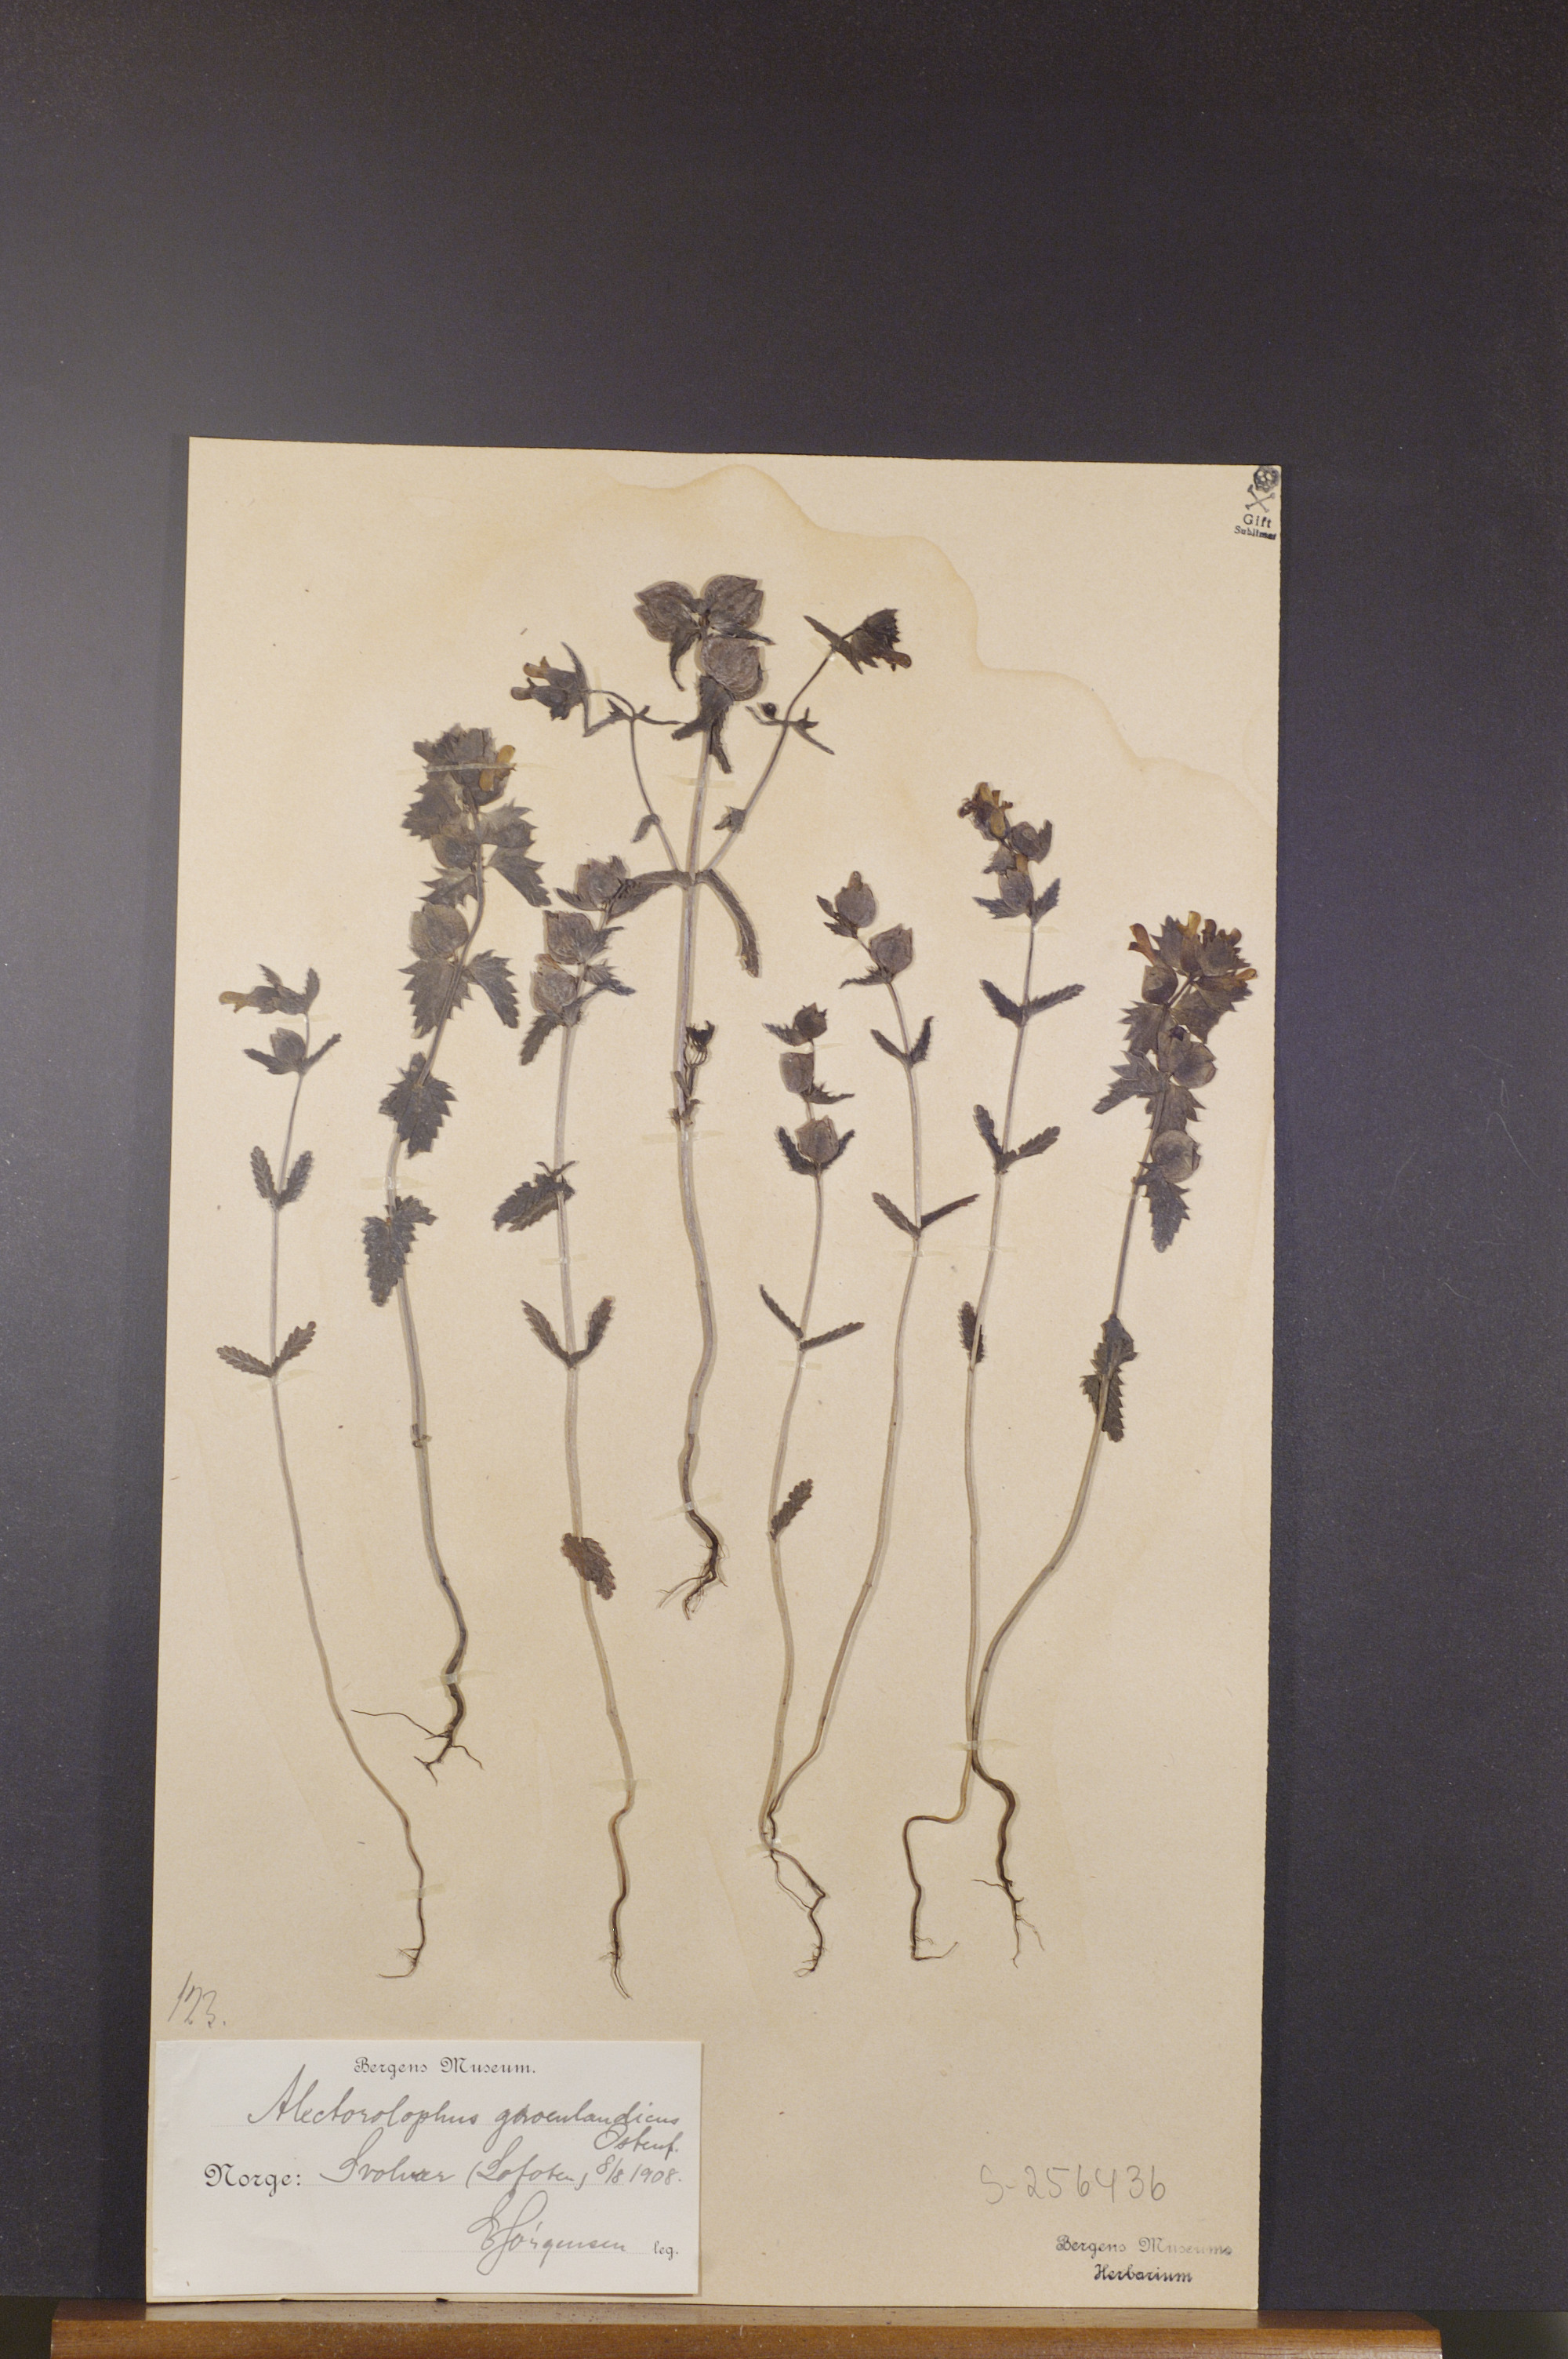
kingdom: Plantae
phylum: Tracheophyta
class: Magnoliopsida
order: Lamiales
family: Orobanchaceae
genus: Rhinanthus
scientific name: Rhinanthus groenlandicus
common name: Little yellow rattle
